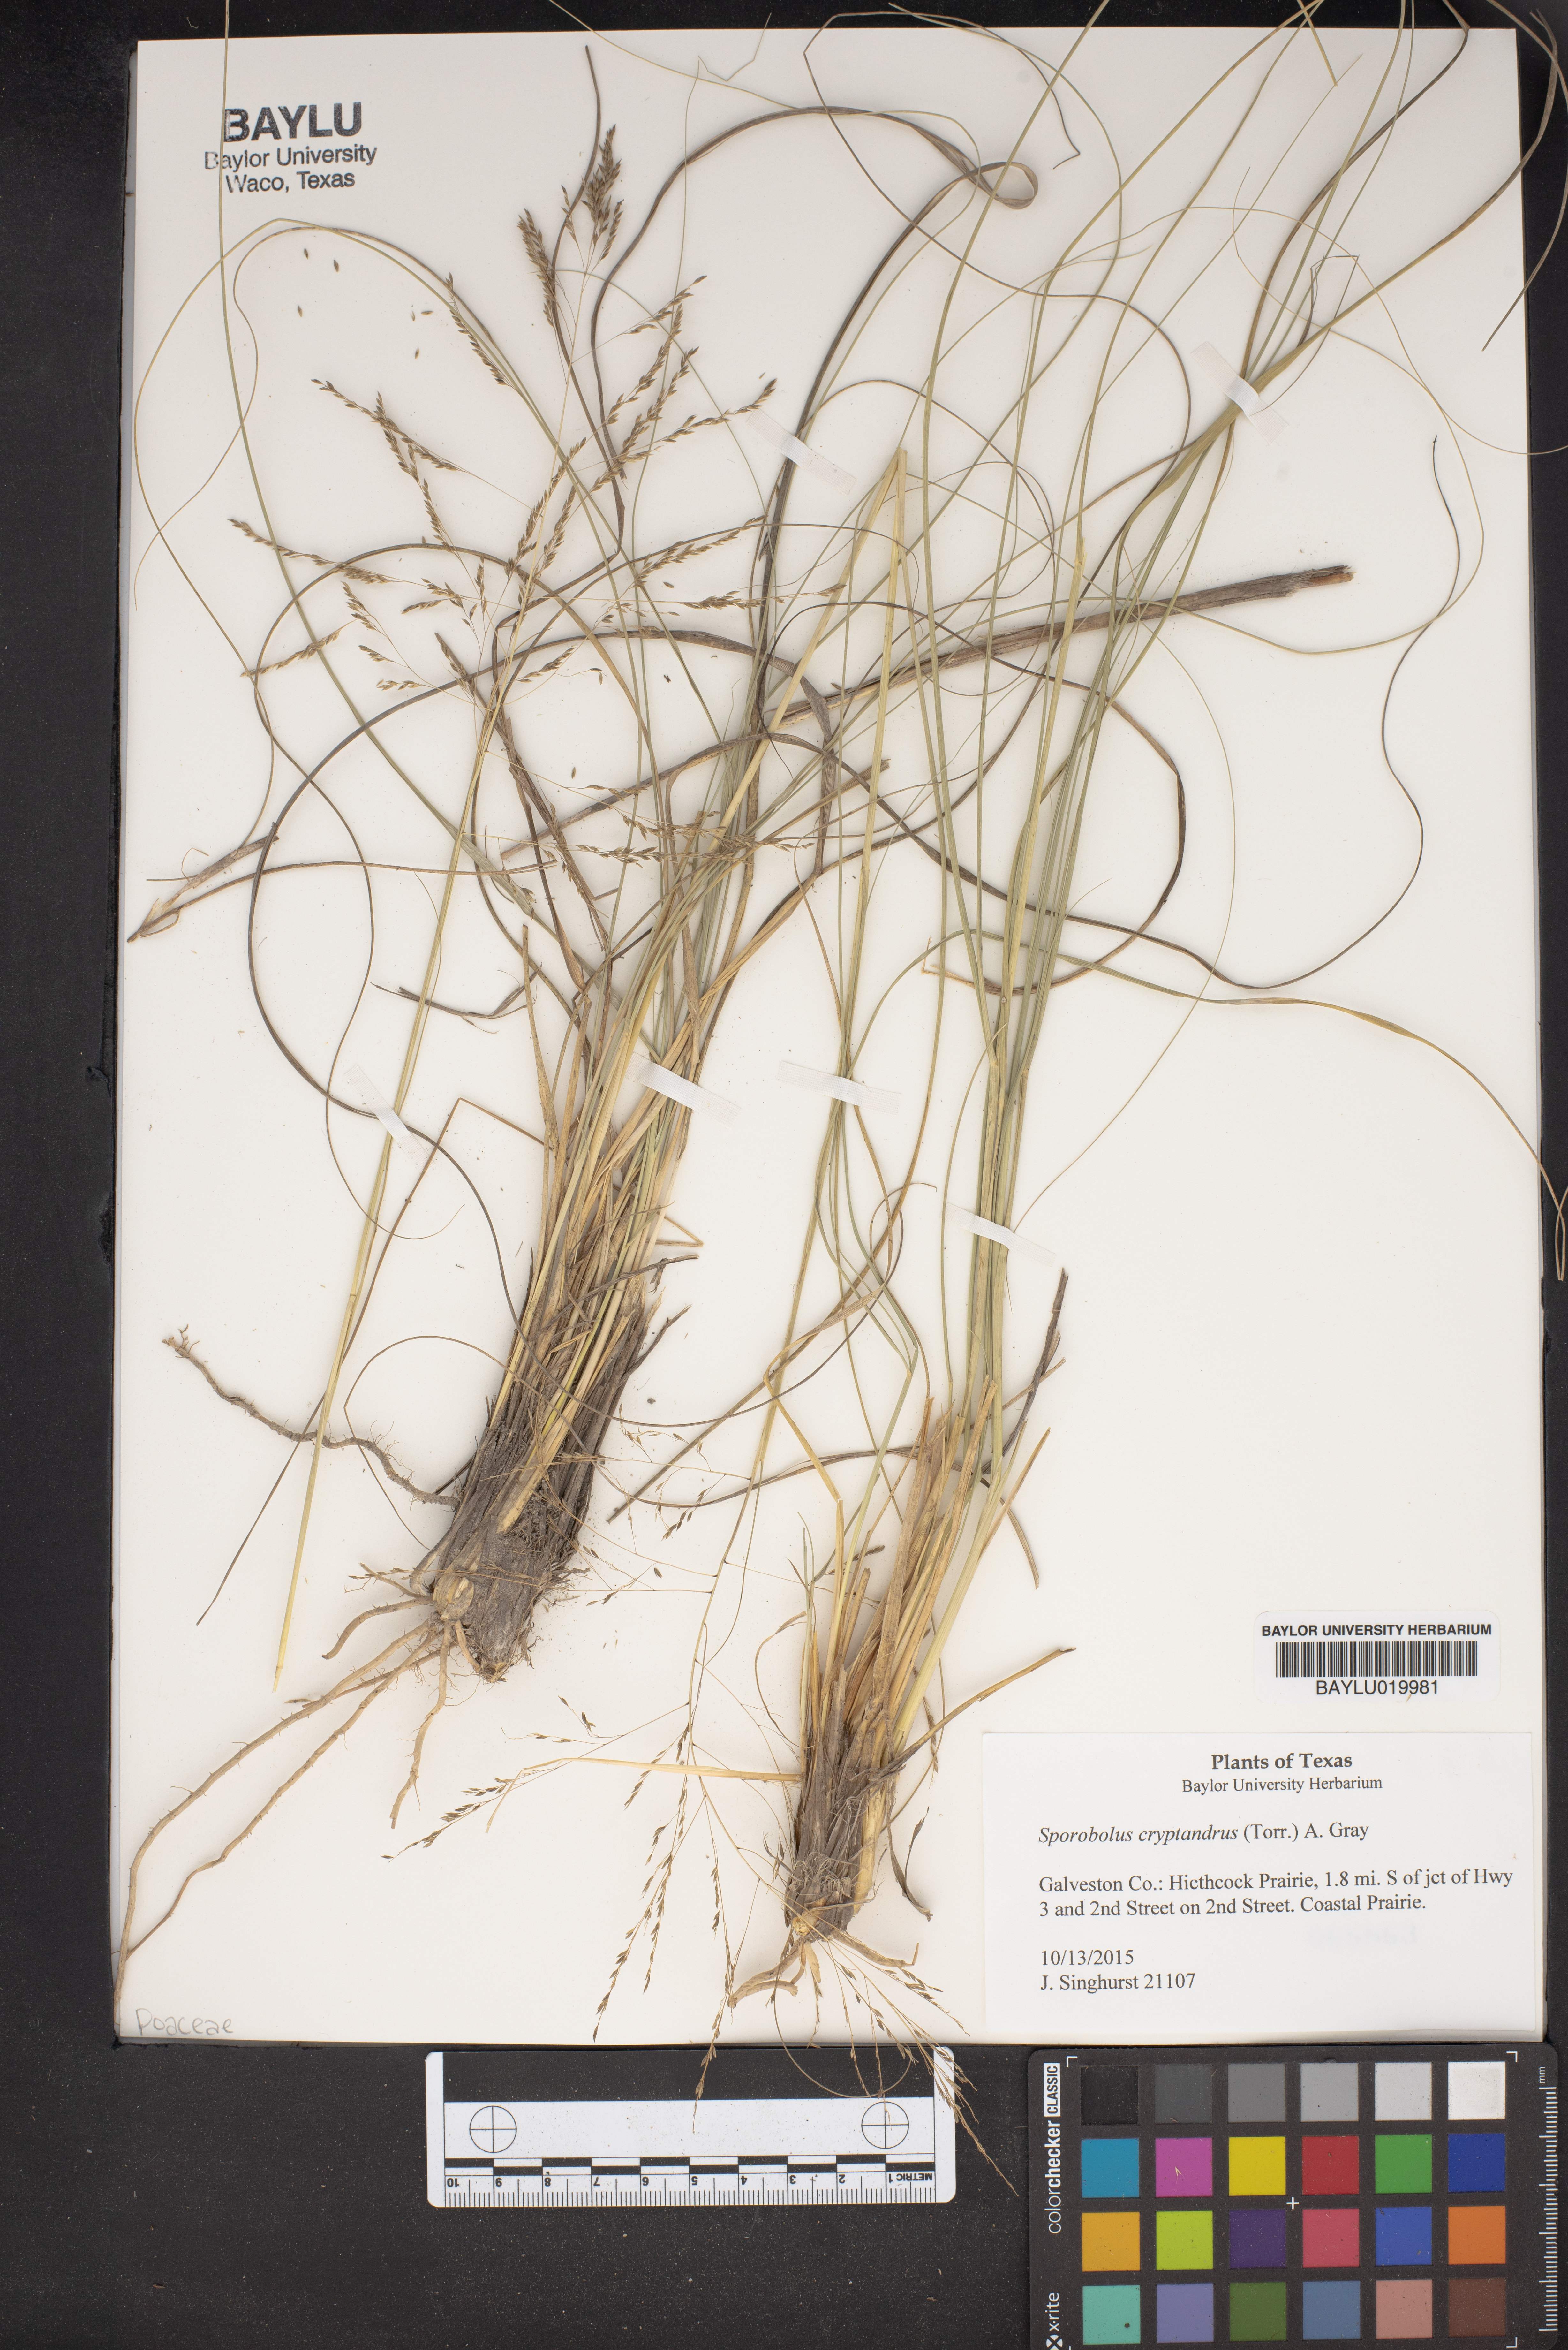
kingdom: Plantae
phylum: Tracheophyta
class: Liliopsida
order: Poales
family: Poaceae
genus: Sporobolus
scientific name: Sporobolus cryptandrus
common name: Sand dropseed
